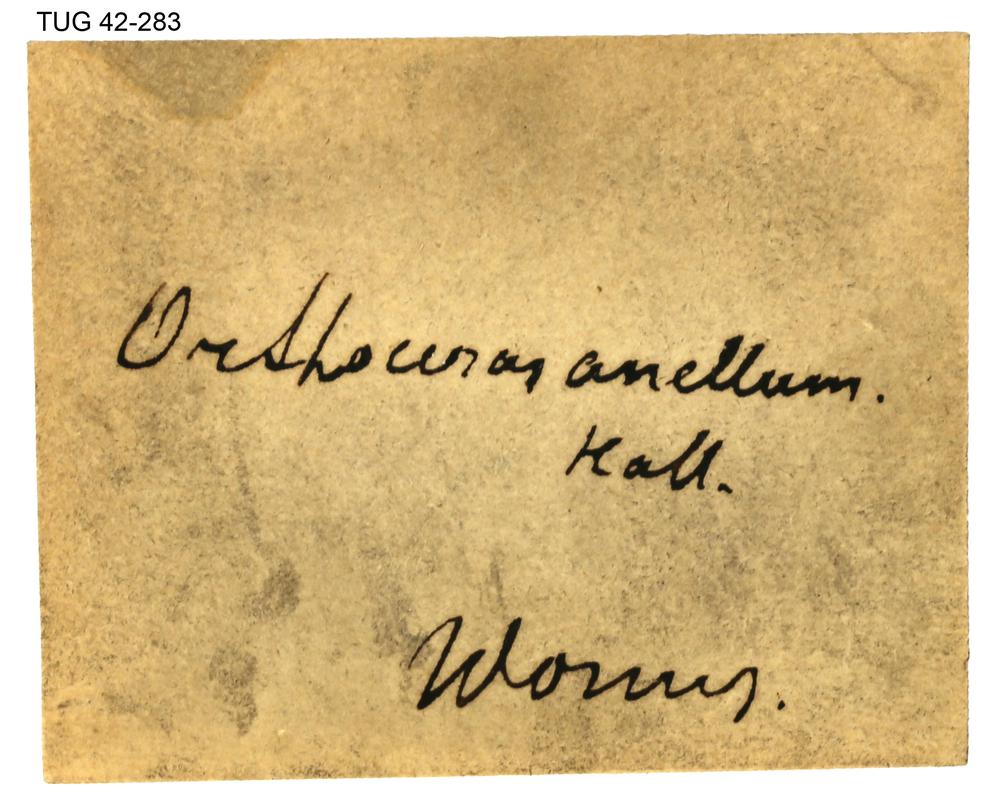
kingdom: Animalia
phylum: Mollusca
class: Cephalopoda
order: Orthocerida
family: Orthoceratidae
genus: Orthoceras
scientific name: Orthoceras
